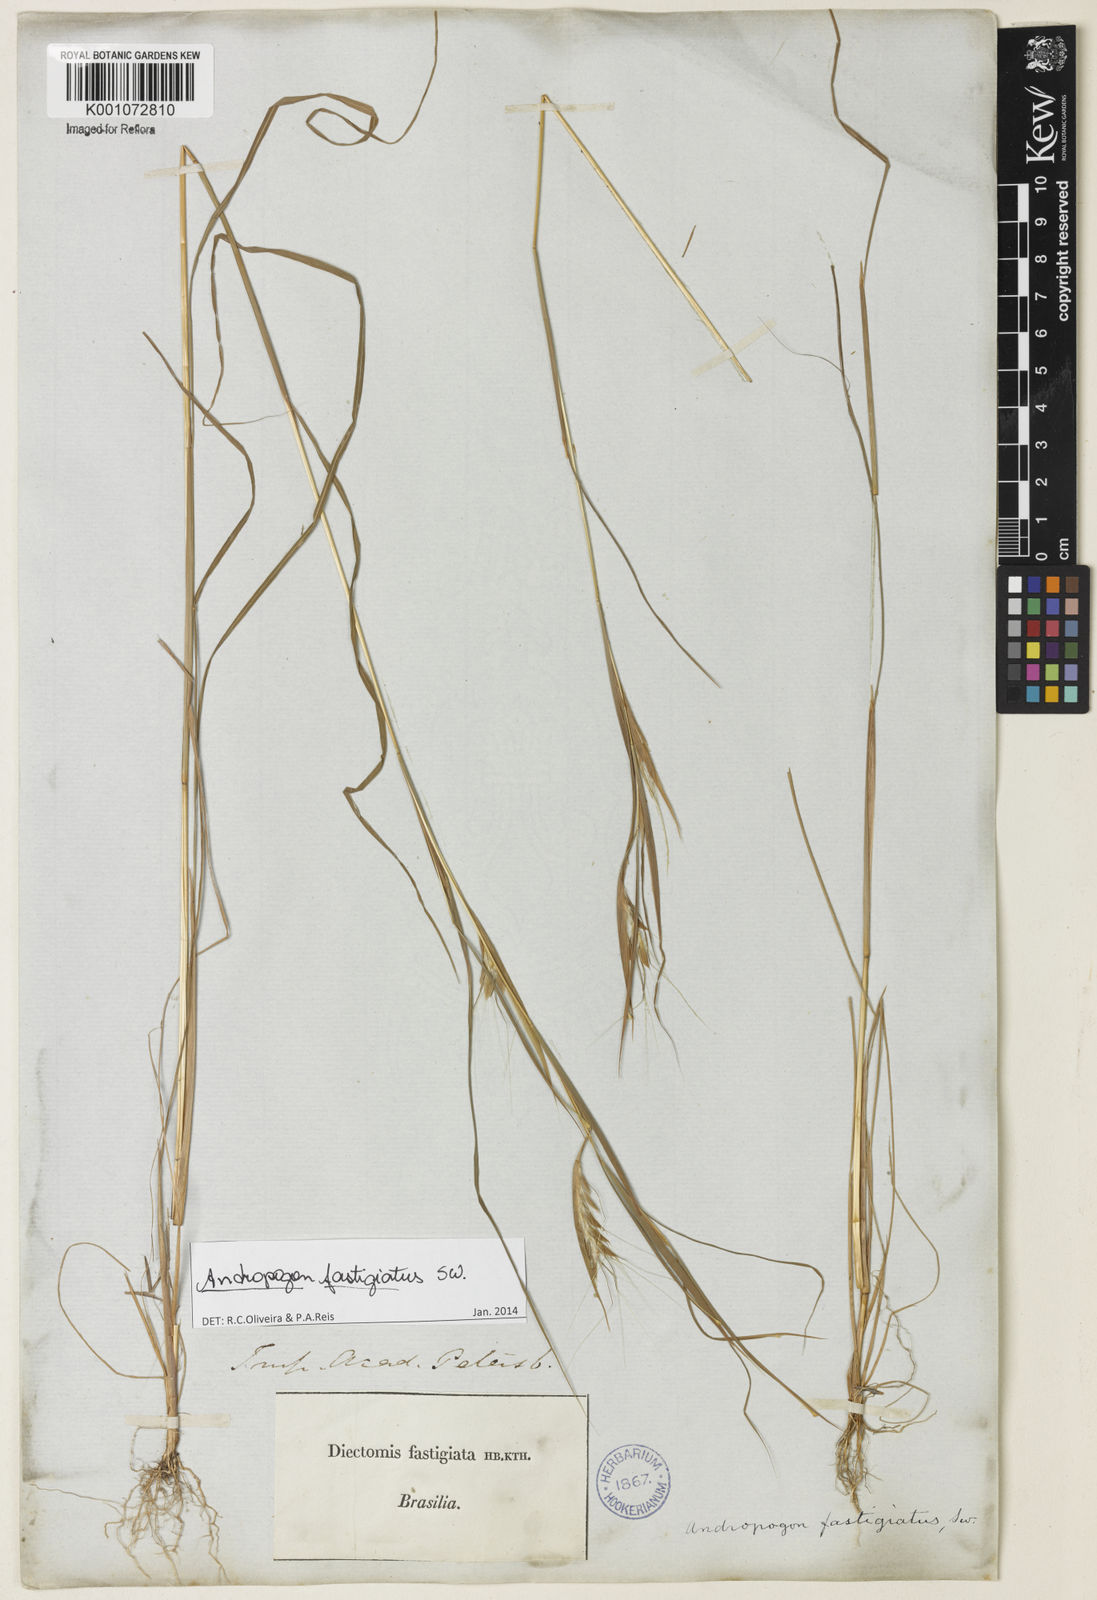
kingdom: Plantae
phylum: Tracheophyta
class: Liliopsida
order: Poales
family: Poaceae
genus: Diectomis
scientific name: Diectomis fastigiata
